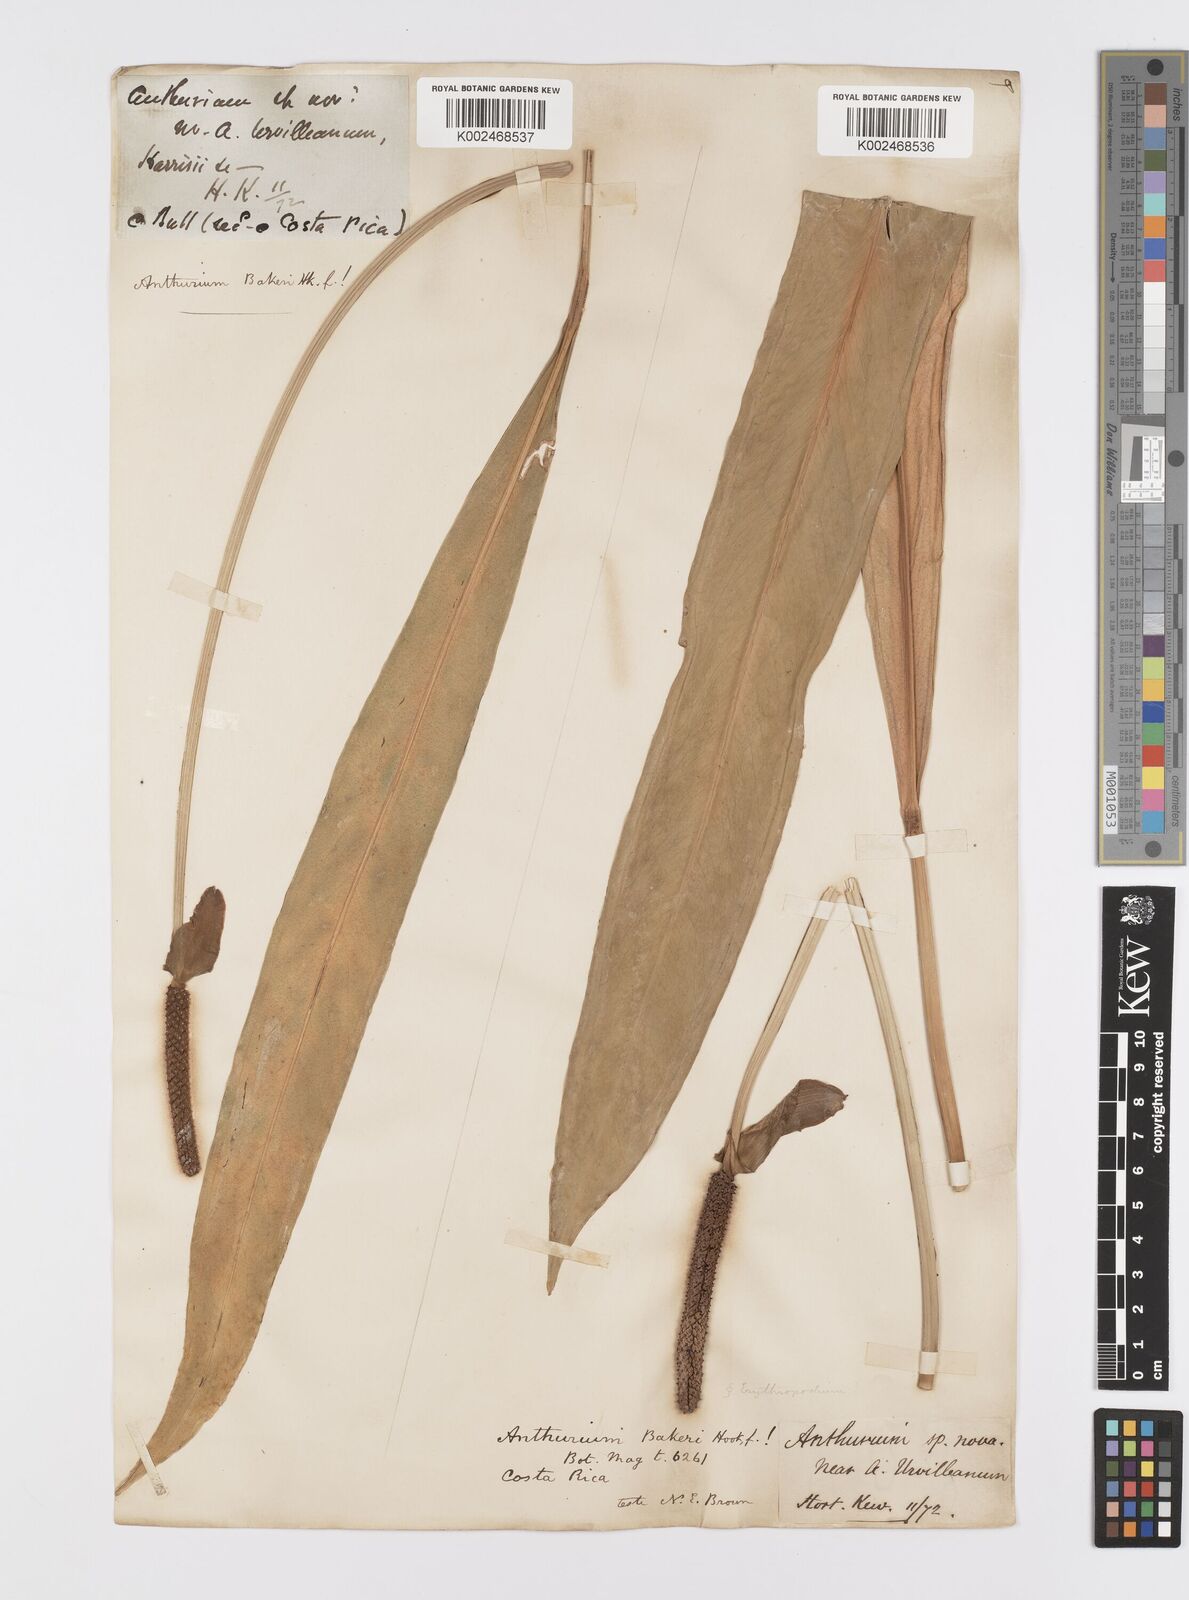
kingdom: Plantae
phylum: Tracheophyta
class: Liliopsida
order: Alismatales
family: Araceae
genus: Anthurium
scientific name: Anthurium bakeri
